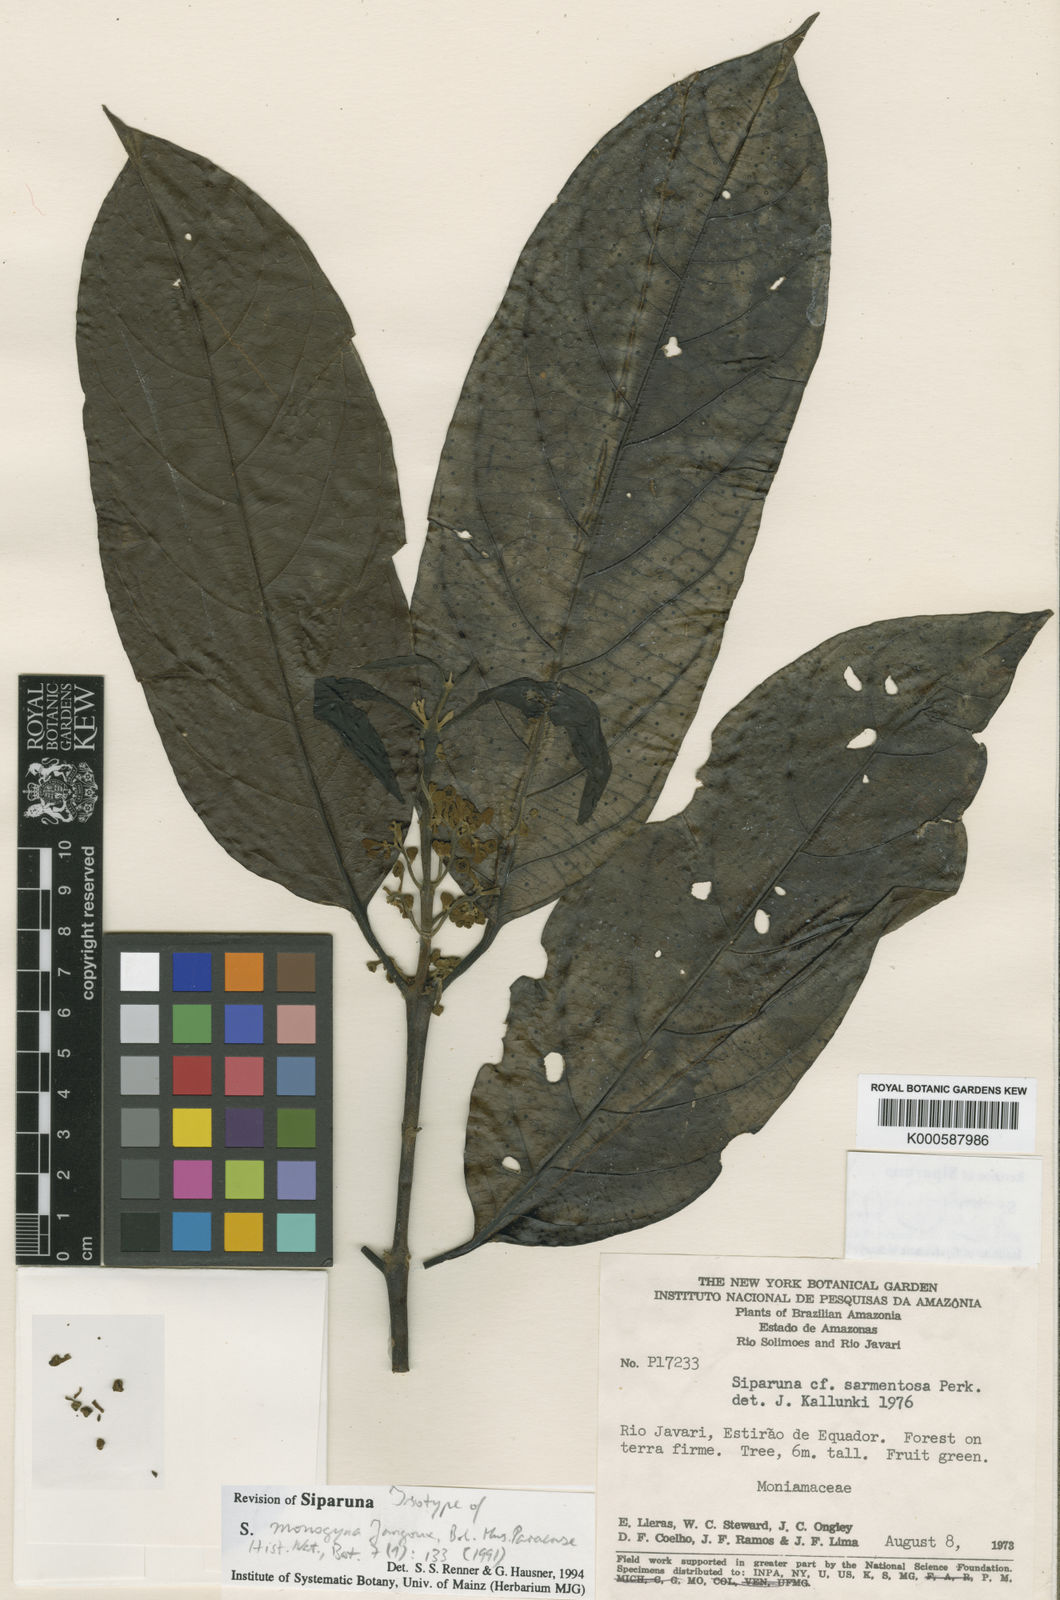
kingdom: Plantae
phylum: Tracheophyta
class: Magnoliopsida
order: Laurales
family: Siparunaceae
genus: Siparuna
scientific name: Siparuna cristata
